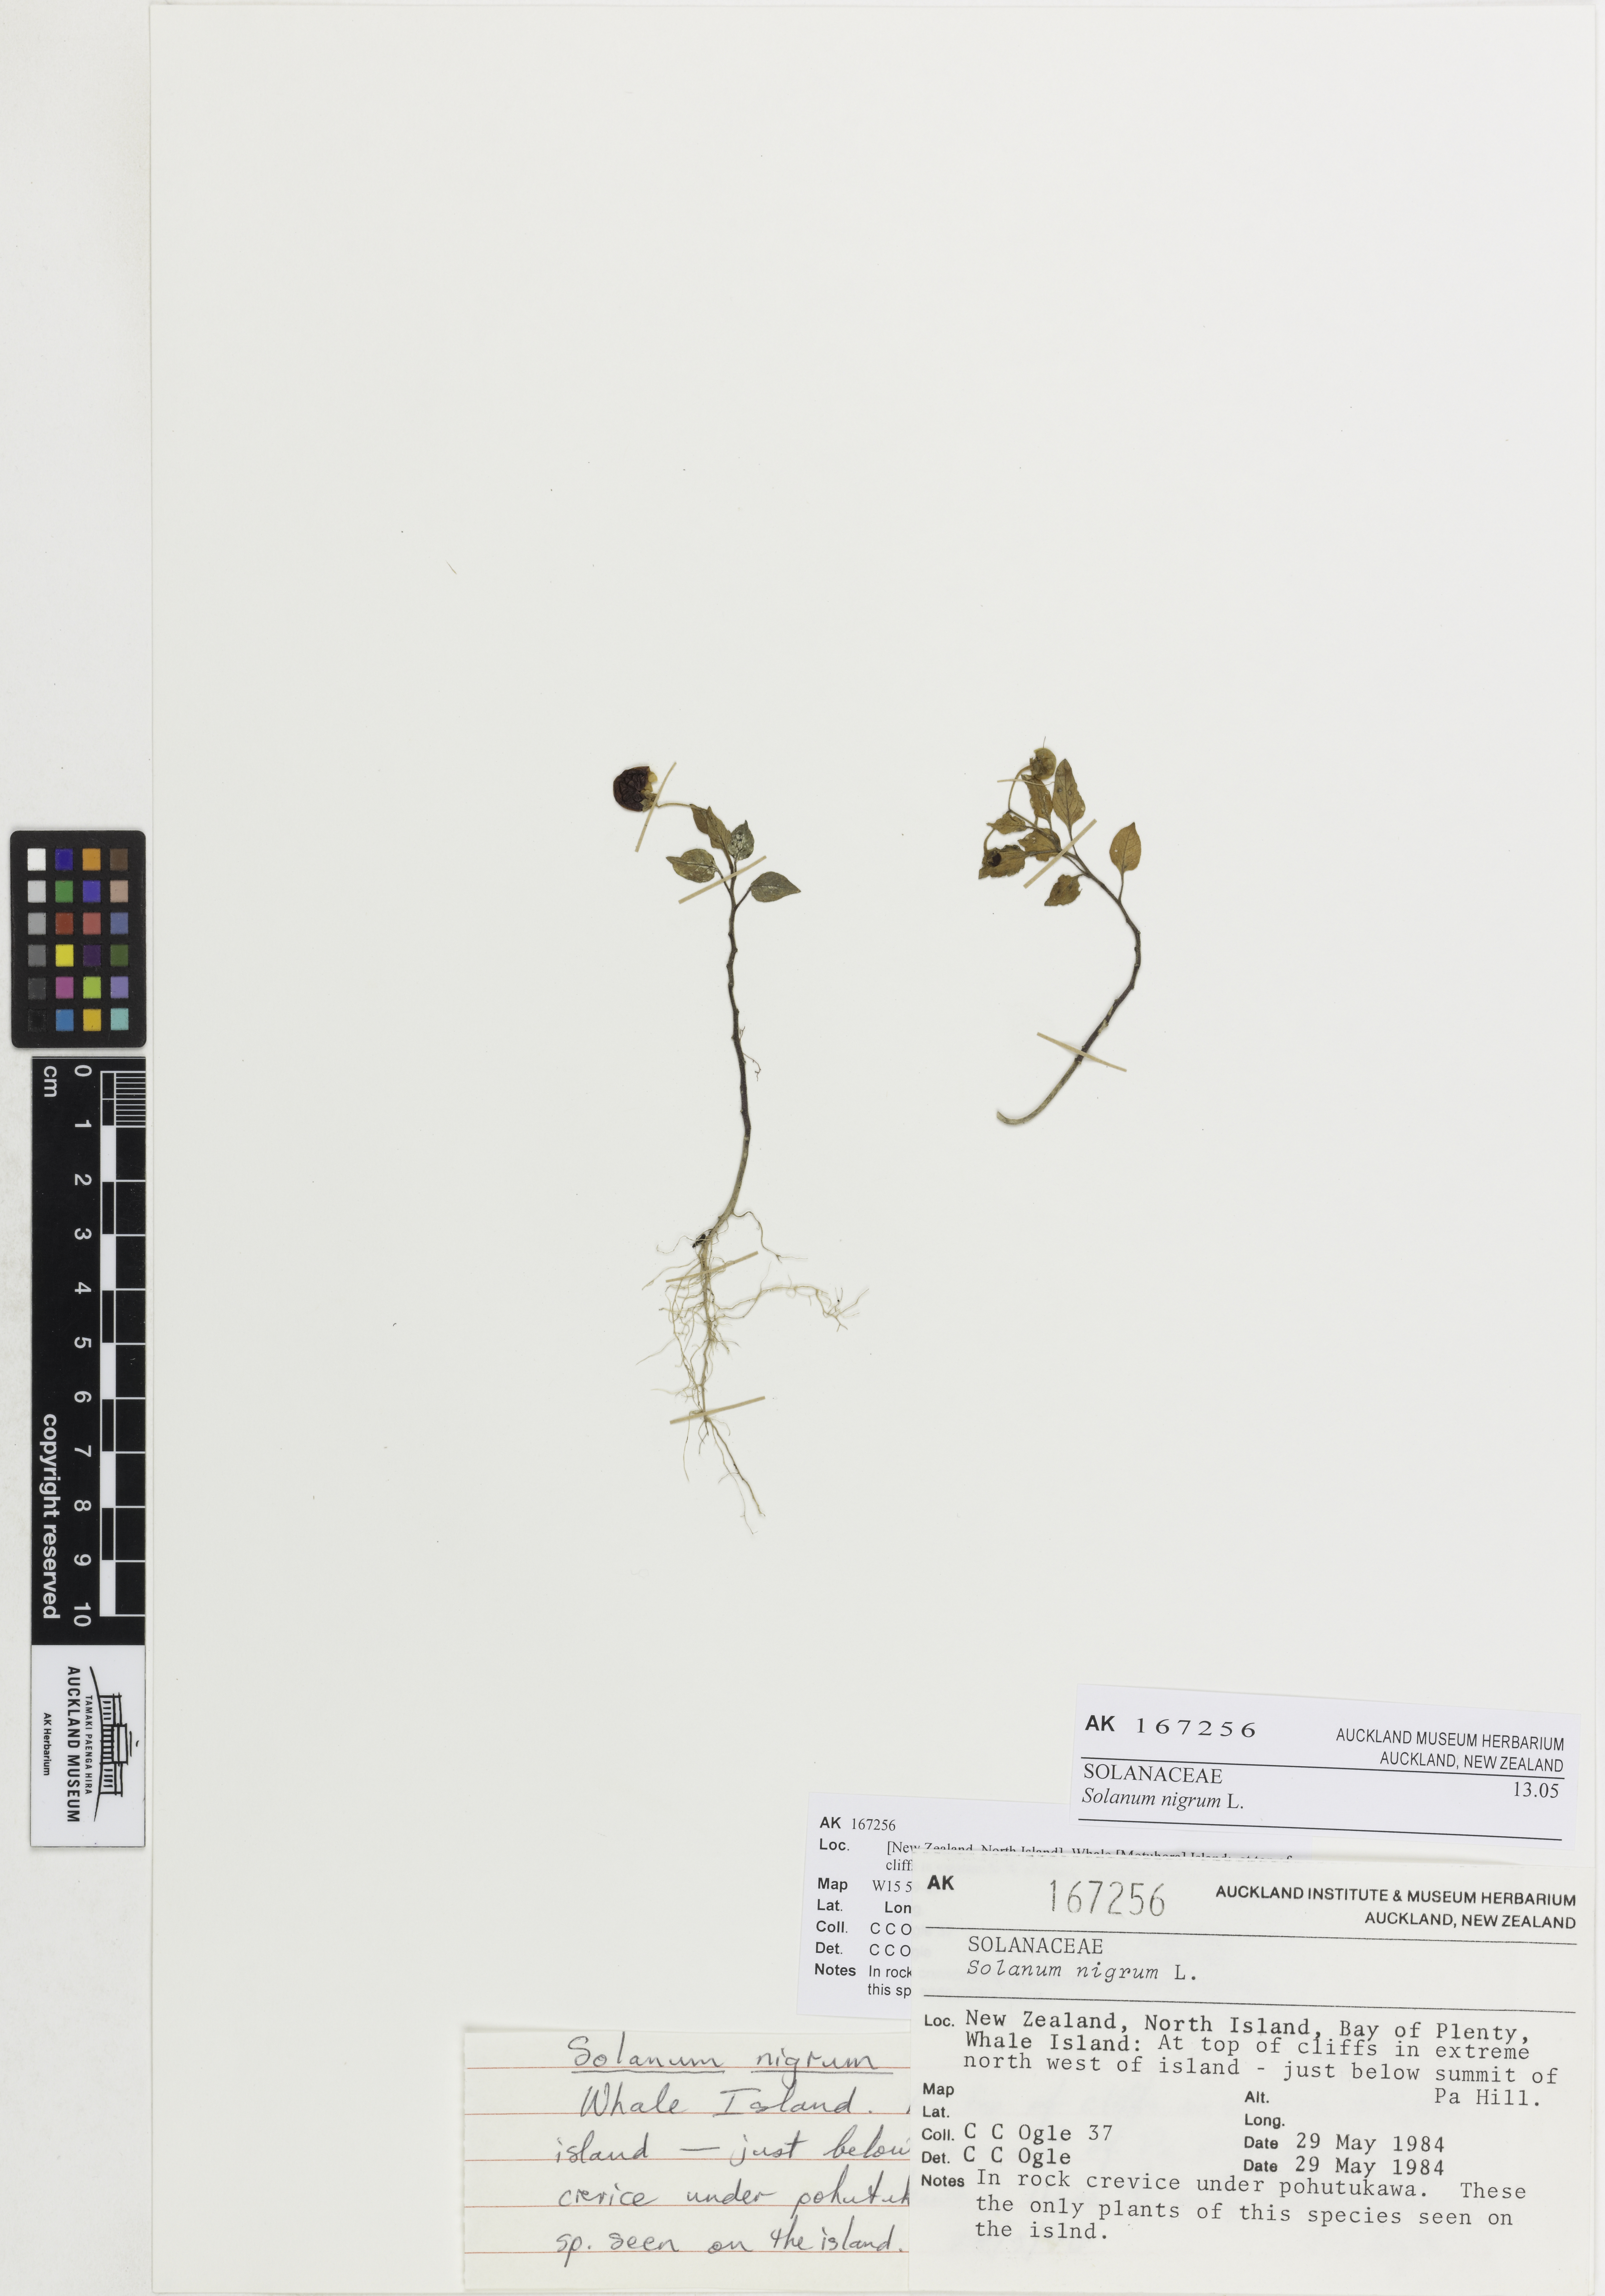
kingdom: Plantae
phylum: Tracheophyta
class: Magnoliopsida
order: Solanales
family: Solanaceae
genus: Solanum
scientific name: Solanum opacum
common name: Green-berry nightshade
